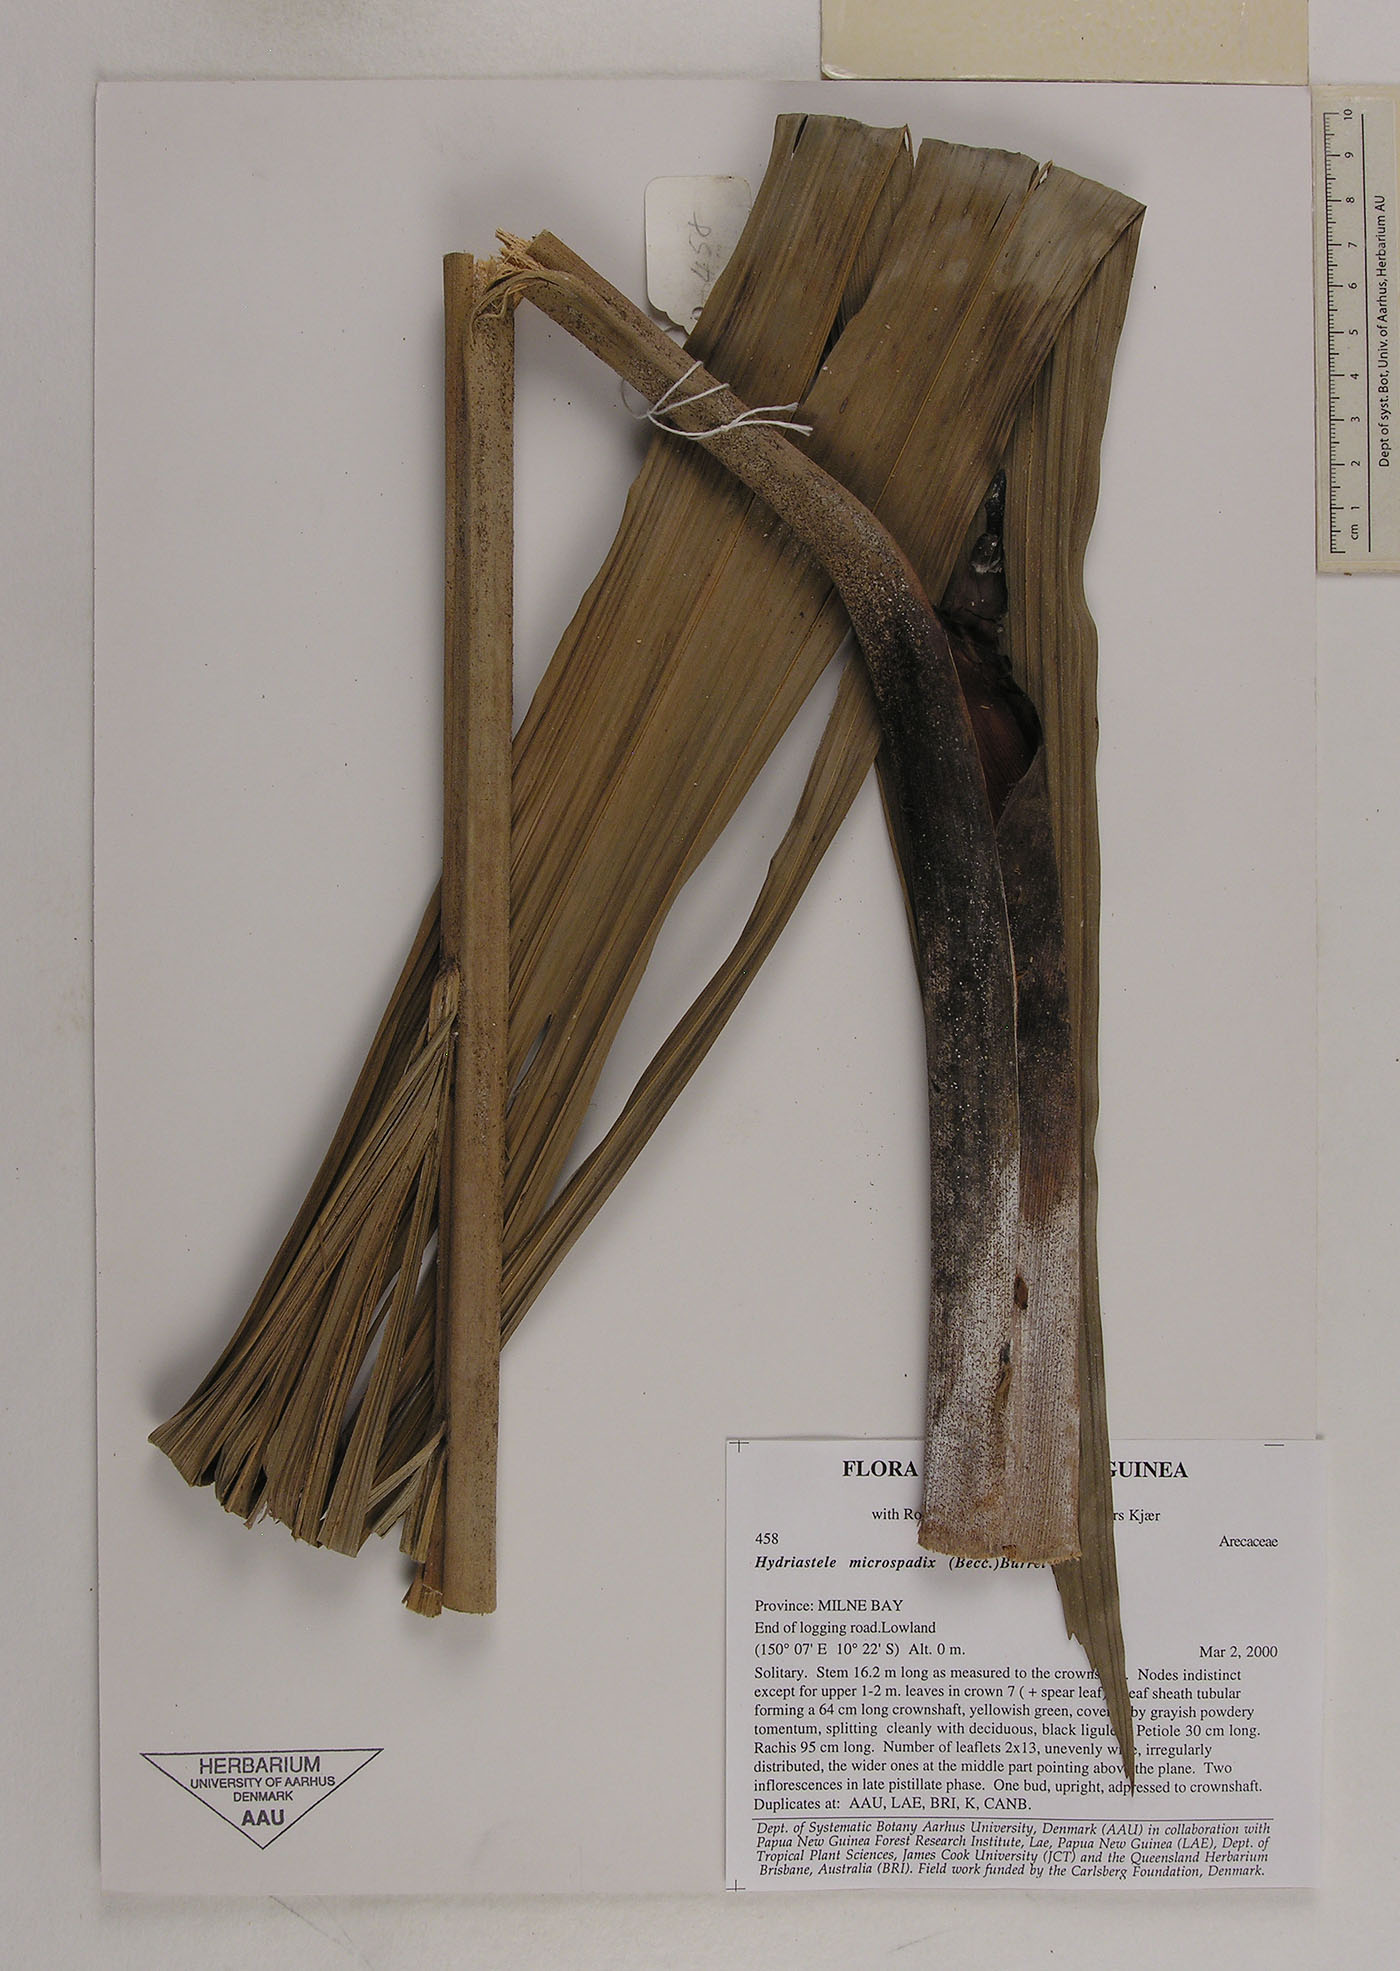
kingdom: Plantae
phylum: Tracheophyta
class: Liliopsida
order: Arecales
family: Arecaceae
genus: Hydriastele
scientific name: Hydriastele wendlandiana
